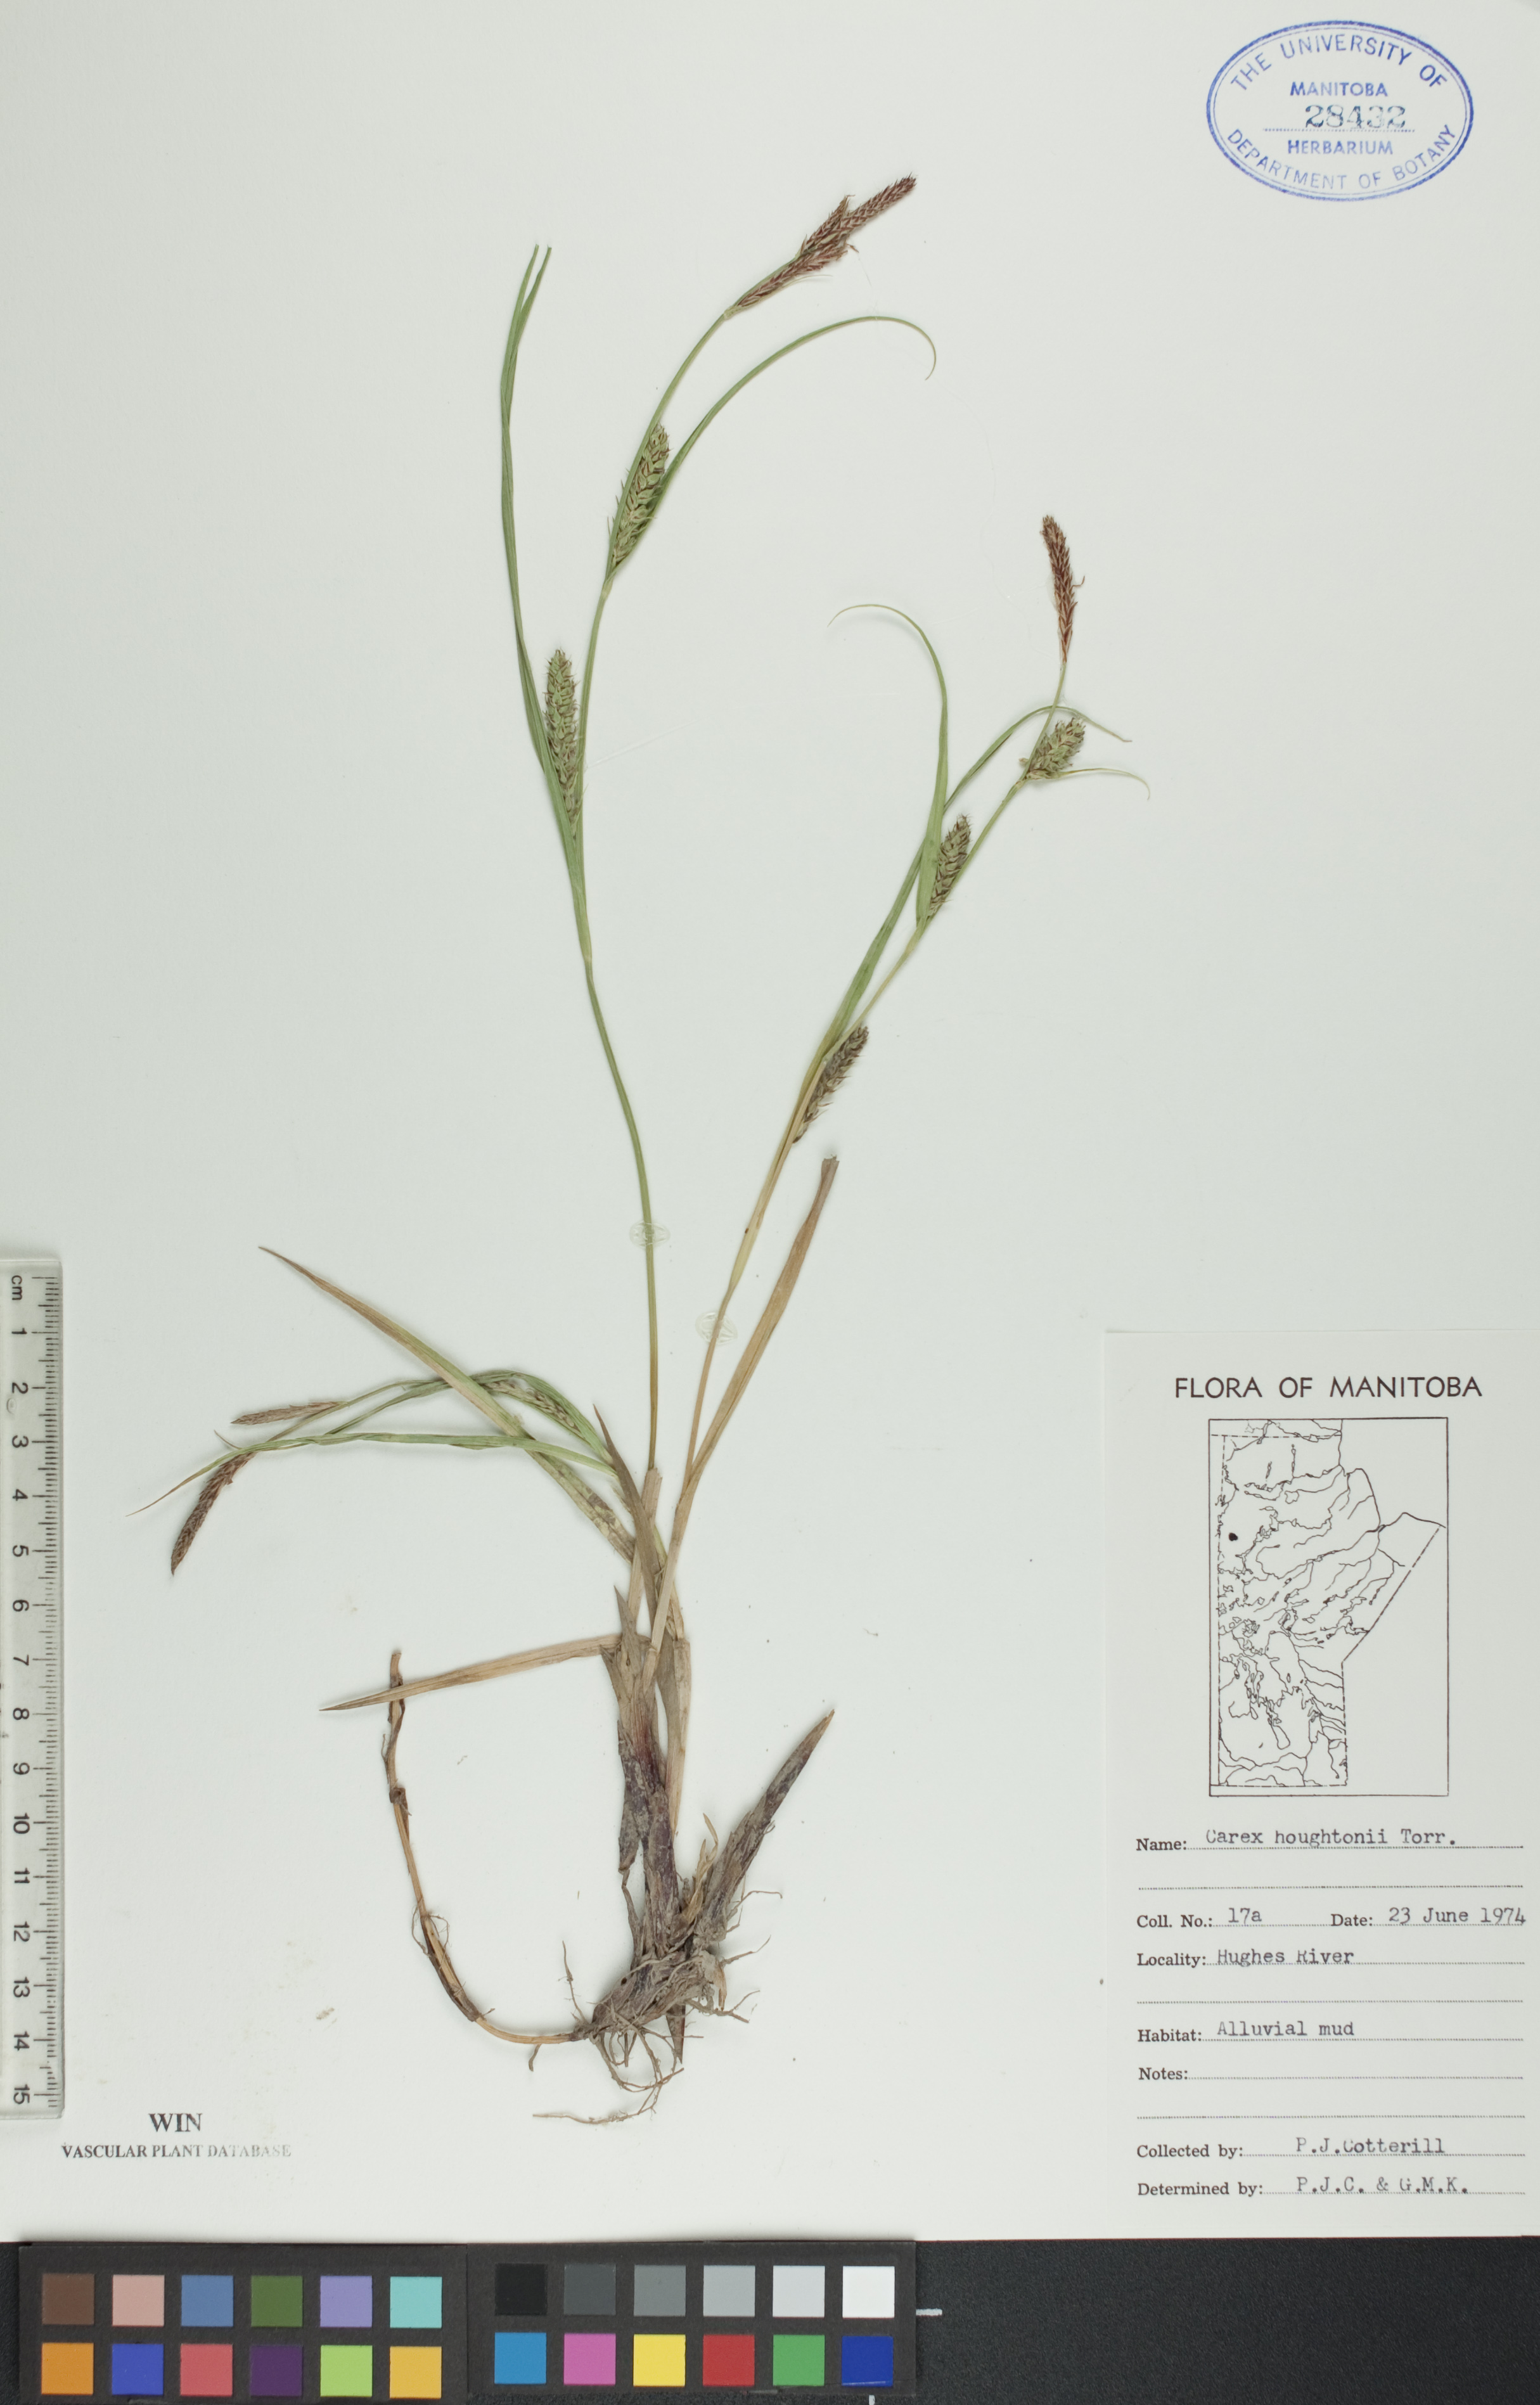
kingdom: Plantae
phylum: Tracheophyta
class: Liliopsida
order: Poales
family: Cyperaceae
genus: Carex
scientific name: Carex houghtoniana
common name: Houghton's sedge
